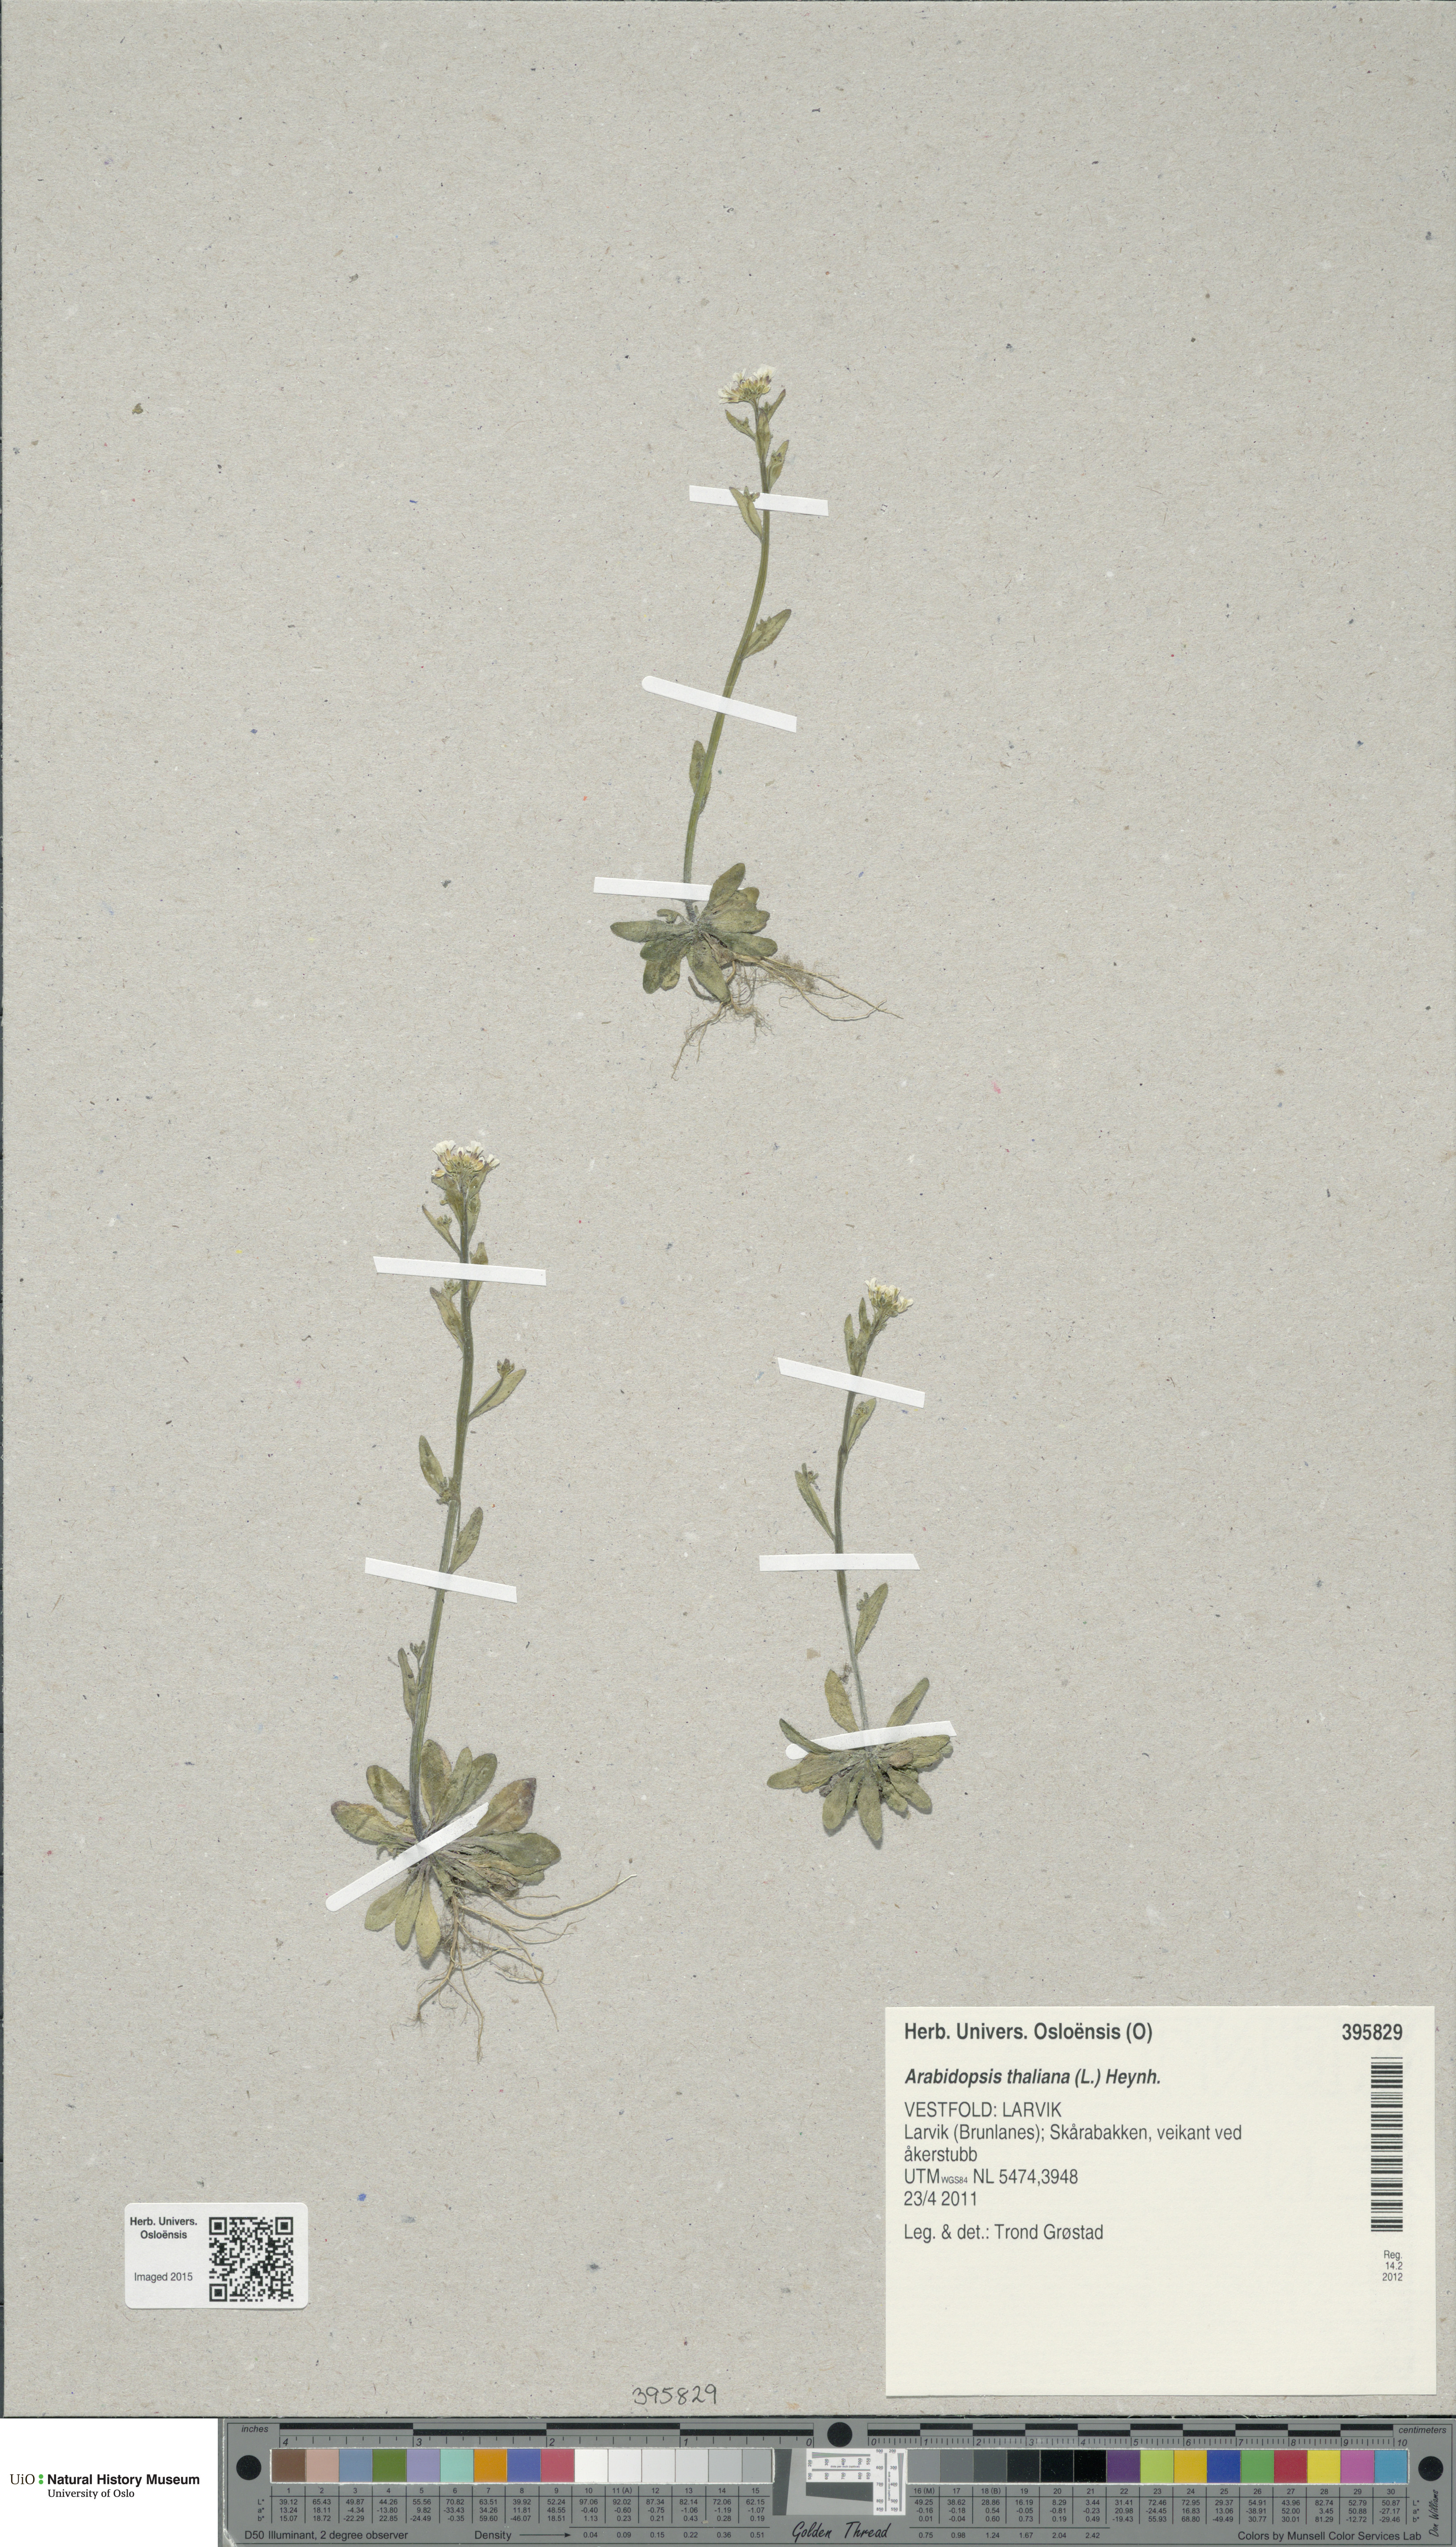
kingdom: Plantae
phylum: Tracheophyta
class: Magnoliopsida
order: Brassicales
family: Brassicaceae
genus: Arabidopsis
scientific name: Arabidopsis thaliana
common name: Thale cress
